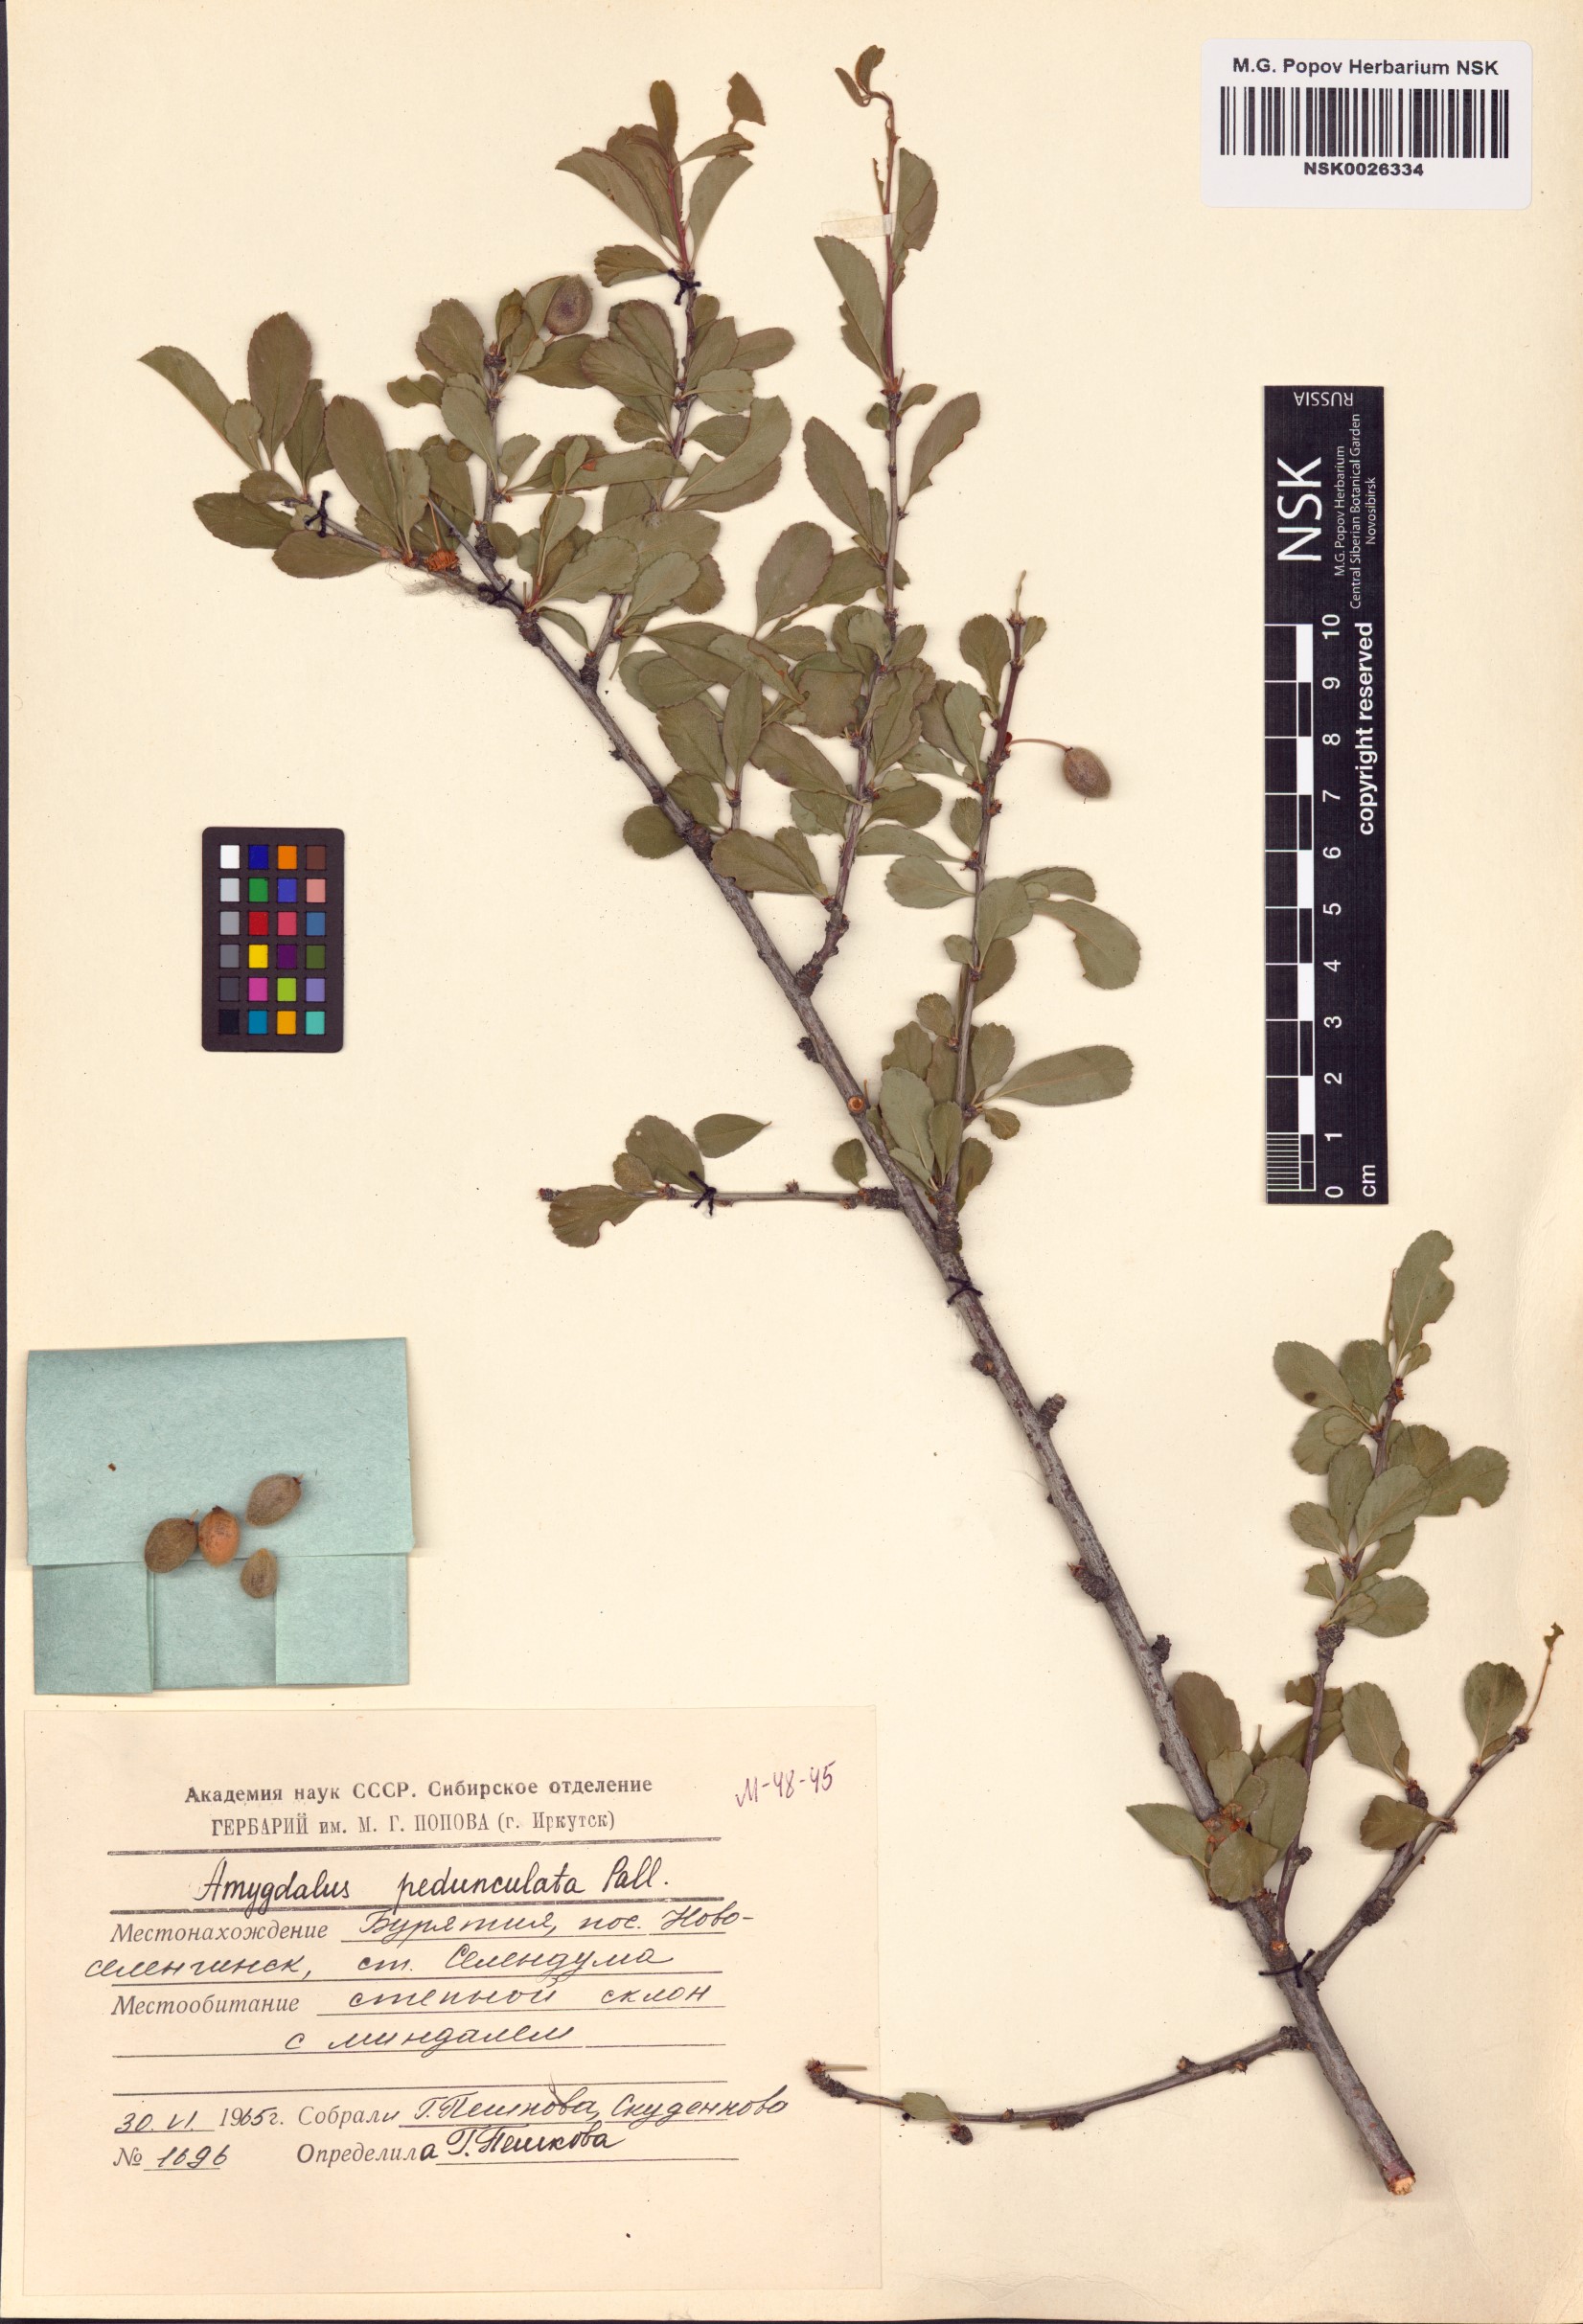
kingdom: Plantae
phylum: Tracheophyta
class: Magnoliopsida
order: Rosales
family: Rosaceae
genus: Prunus
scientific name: Prunus pedunculata
